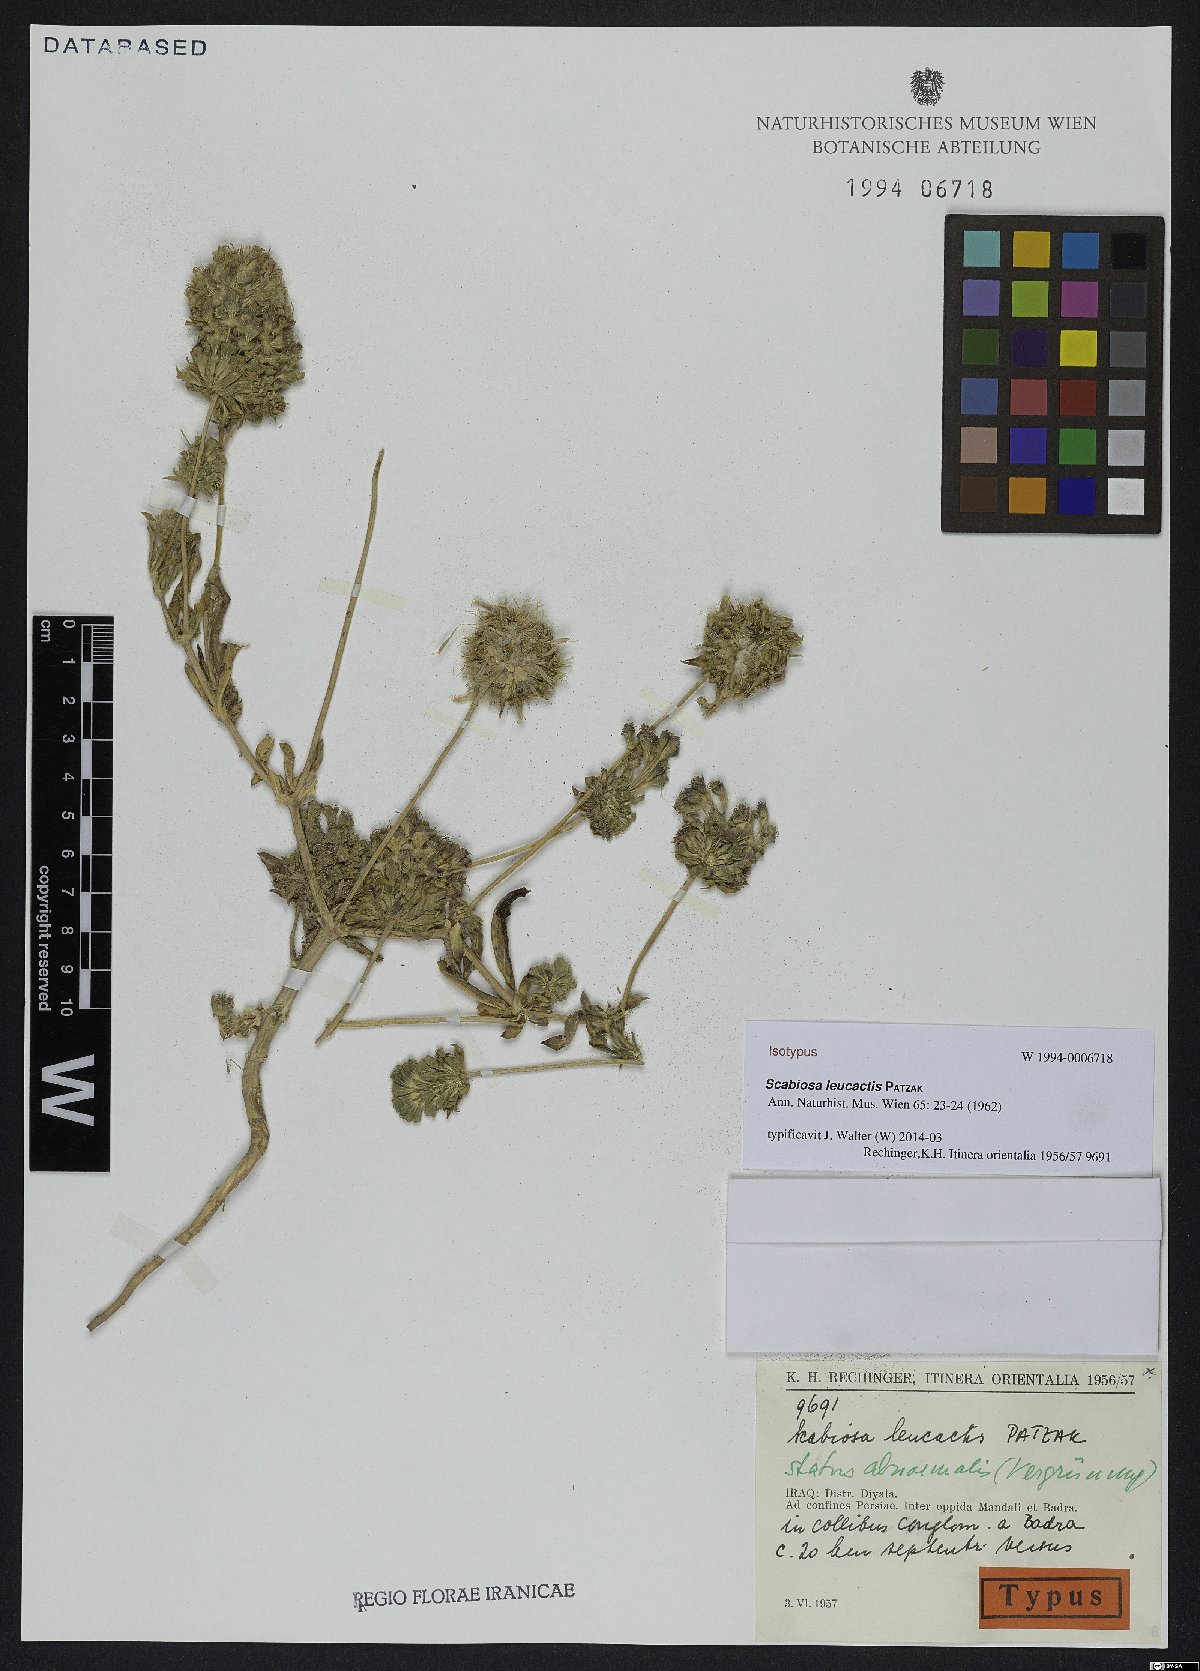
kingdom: Plantae
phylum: Tracheophyta
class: Magnoliopsida
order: Dipsacales
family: Caprifoliaceae
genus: Lomelosia
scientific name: Lomelosia leucactis
